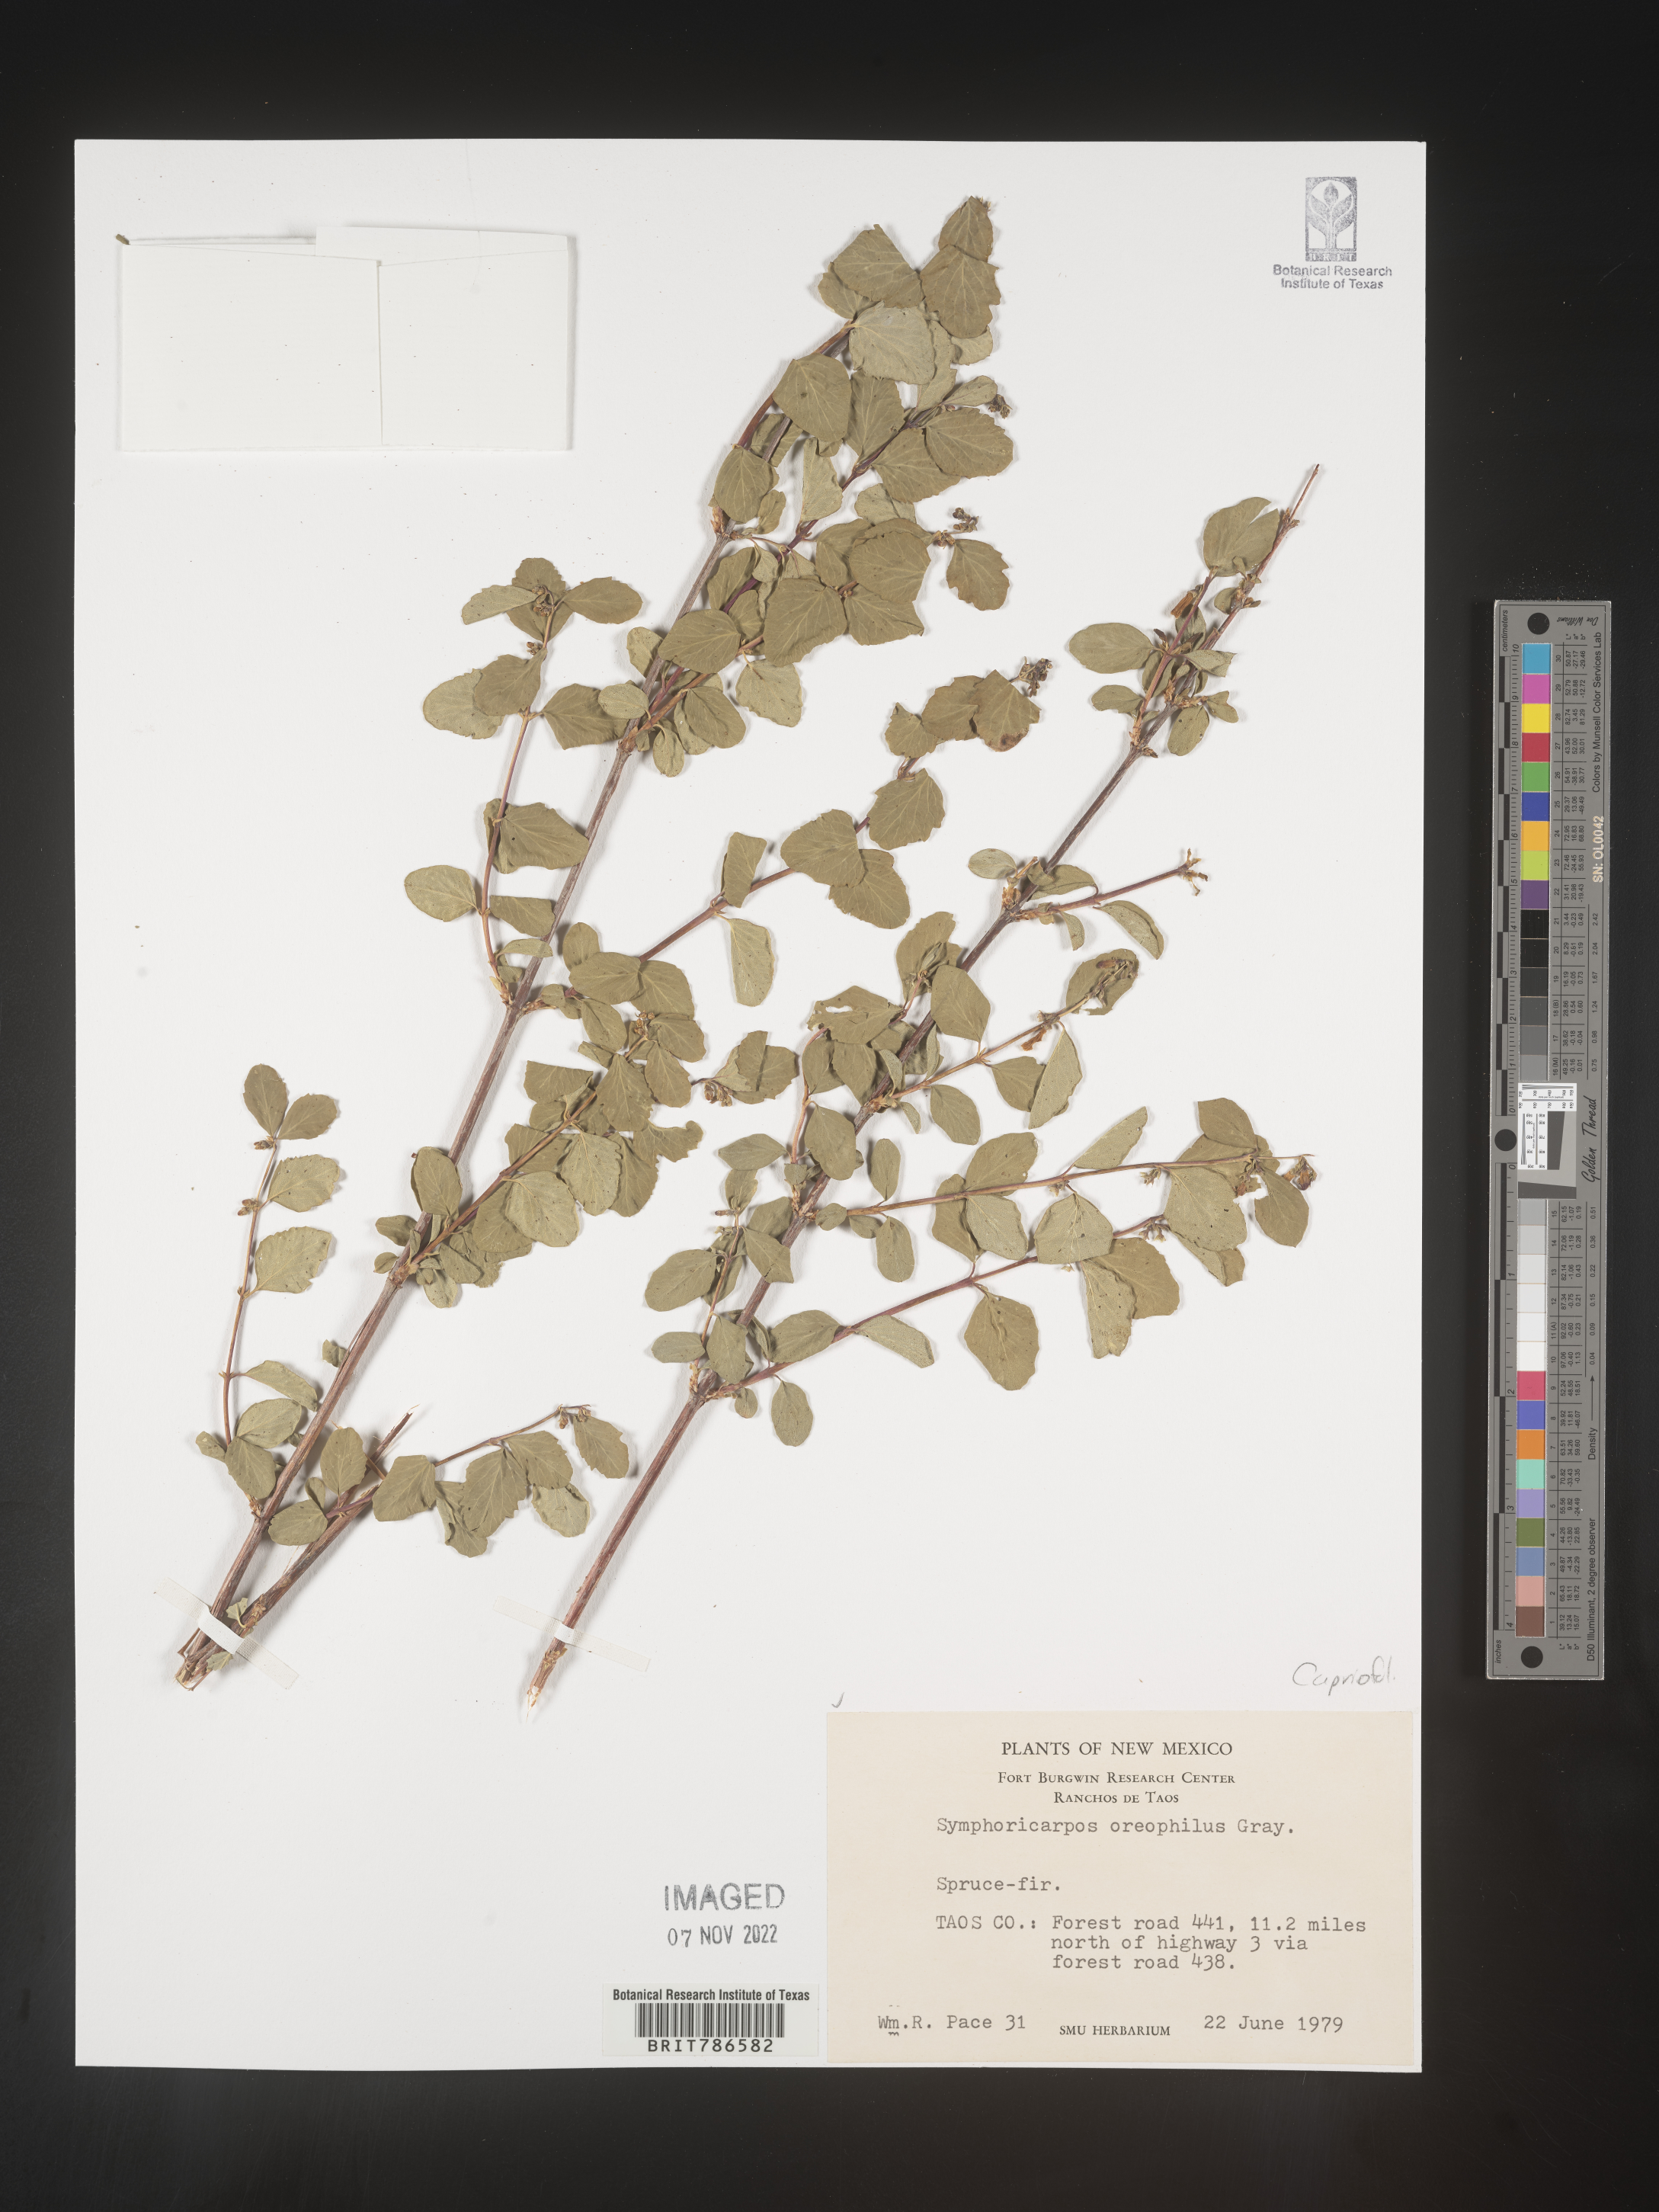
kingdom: Plantae
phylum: Tracheophyta
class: Magnoliopsida
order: Dipsacales
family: Caprifoliaceae
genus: Symphoricarpos
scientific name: Symphoricarpos oreophilus
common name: Mountain snowberry
